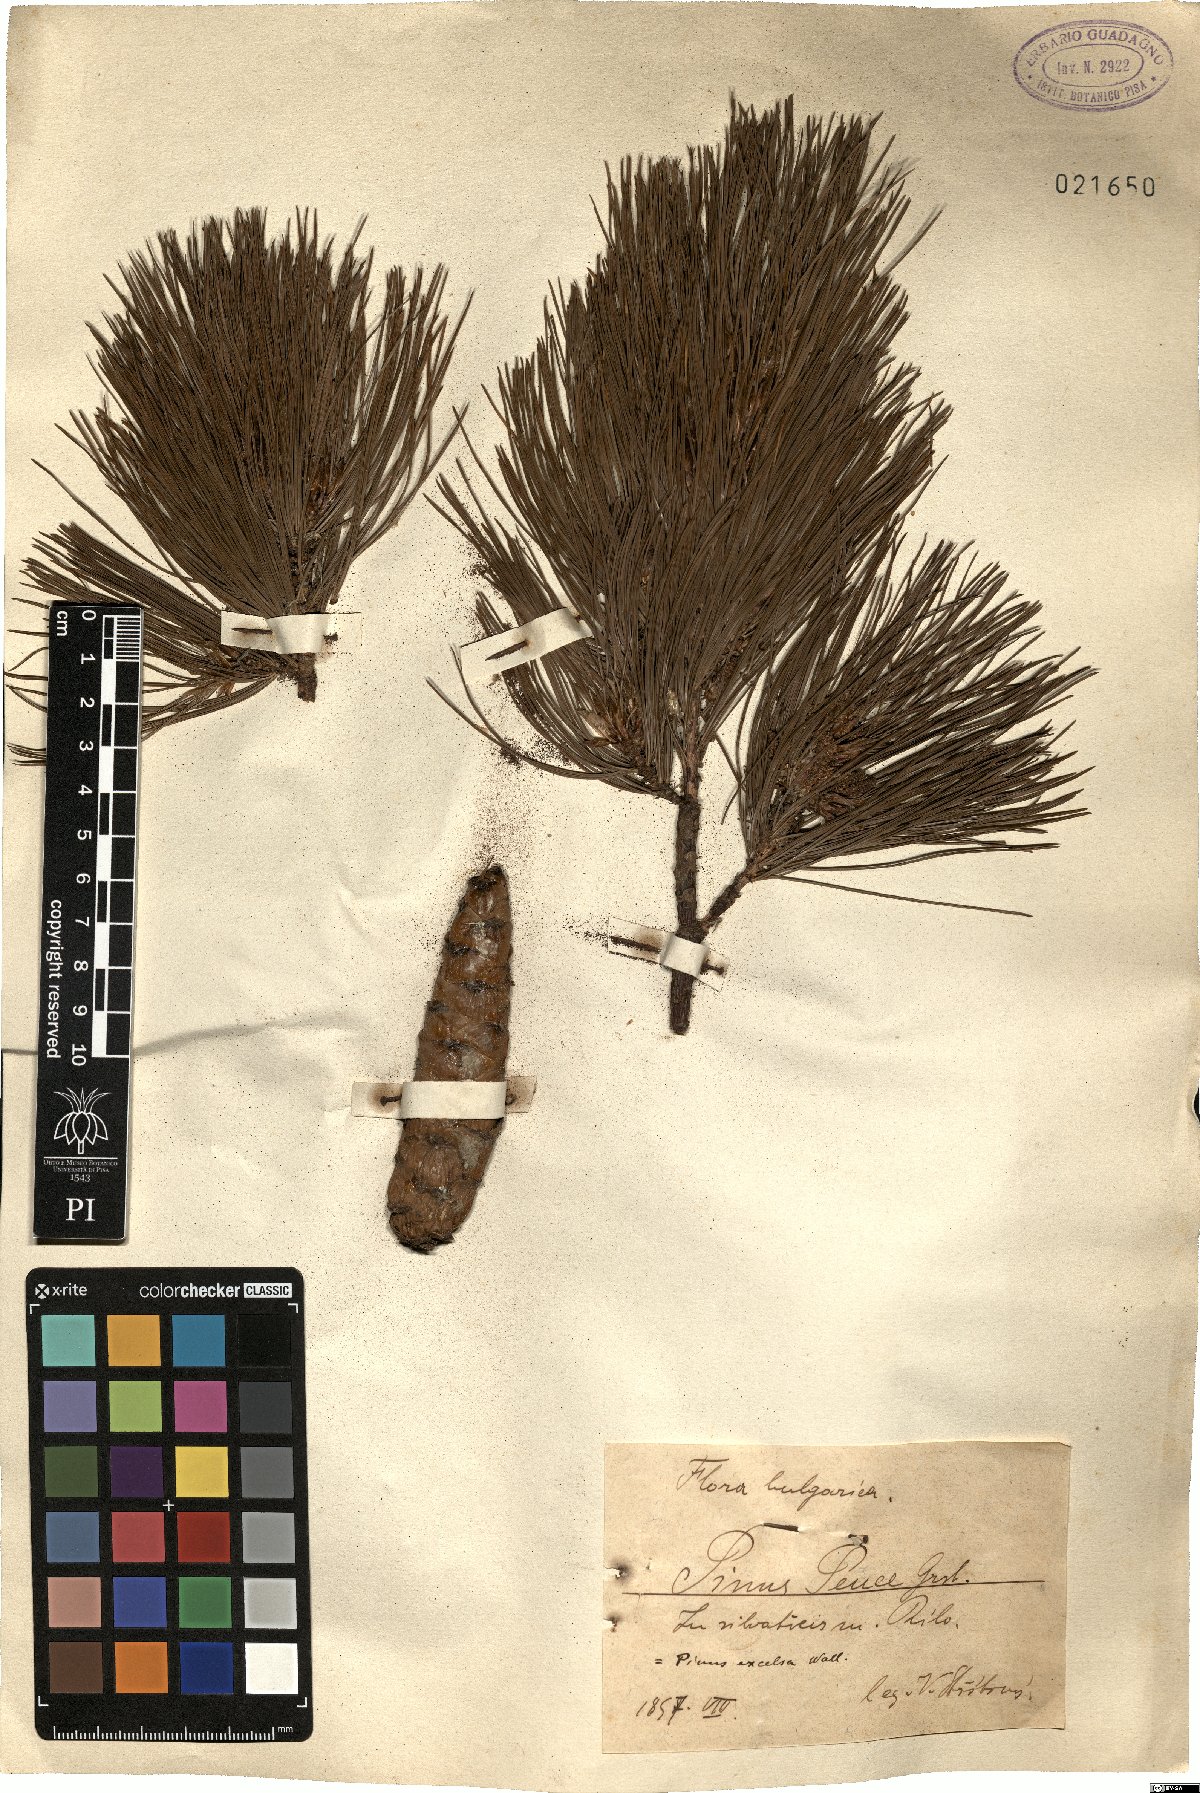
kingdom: Plantae
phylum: Tracheophyta
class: Pinopsida
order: Pinales
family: Pinaceae
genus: Pinus
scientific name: Pinus peuce
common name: Macedonian pine
